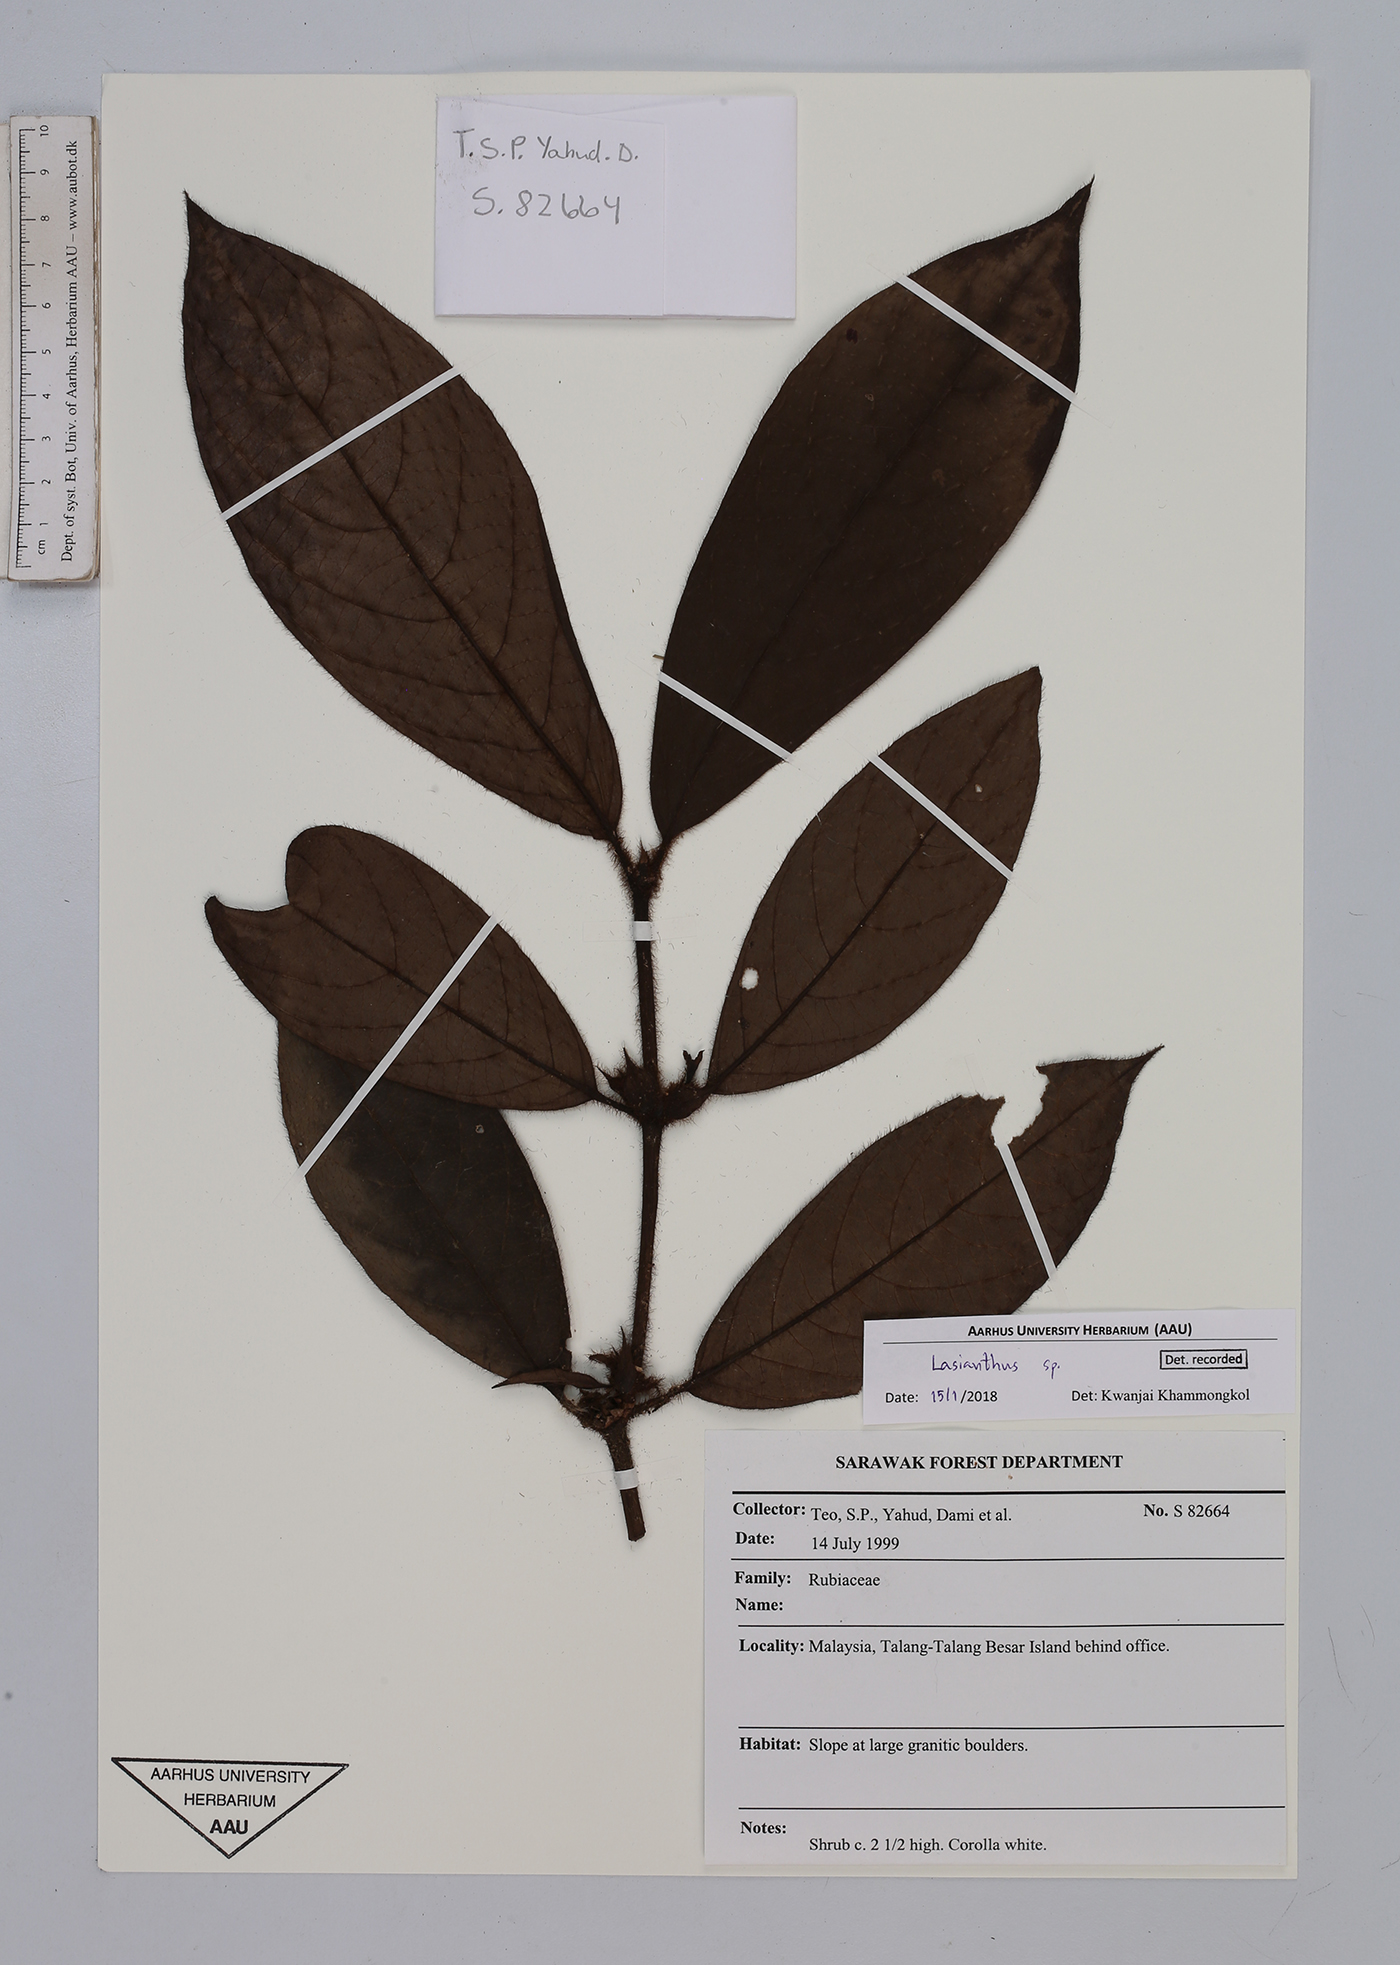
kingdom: Plantae
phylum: Tracheophyta
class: Magnoliopsida
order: Gentianales
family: Rubiaceae
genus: Lasianthus
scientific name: Lasianthus
